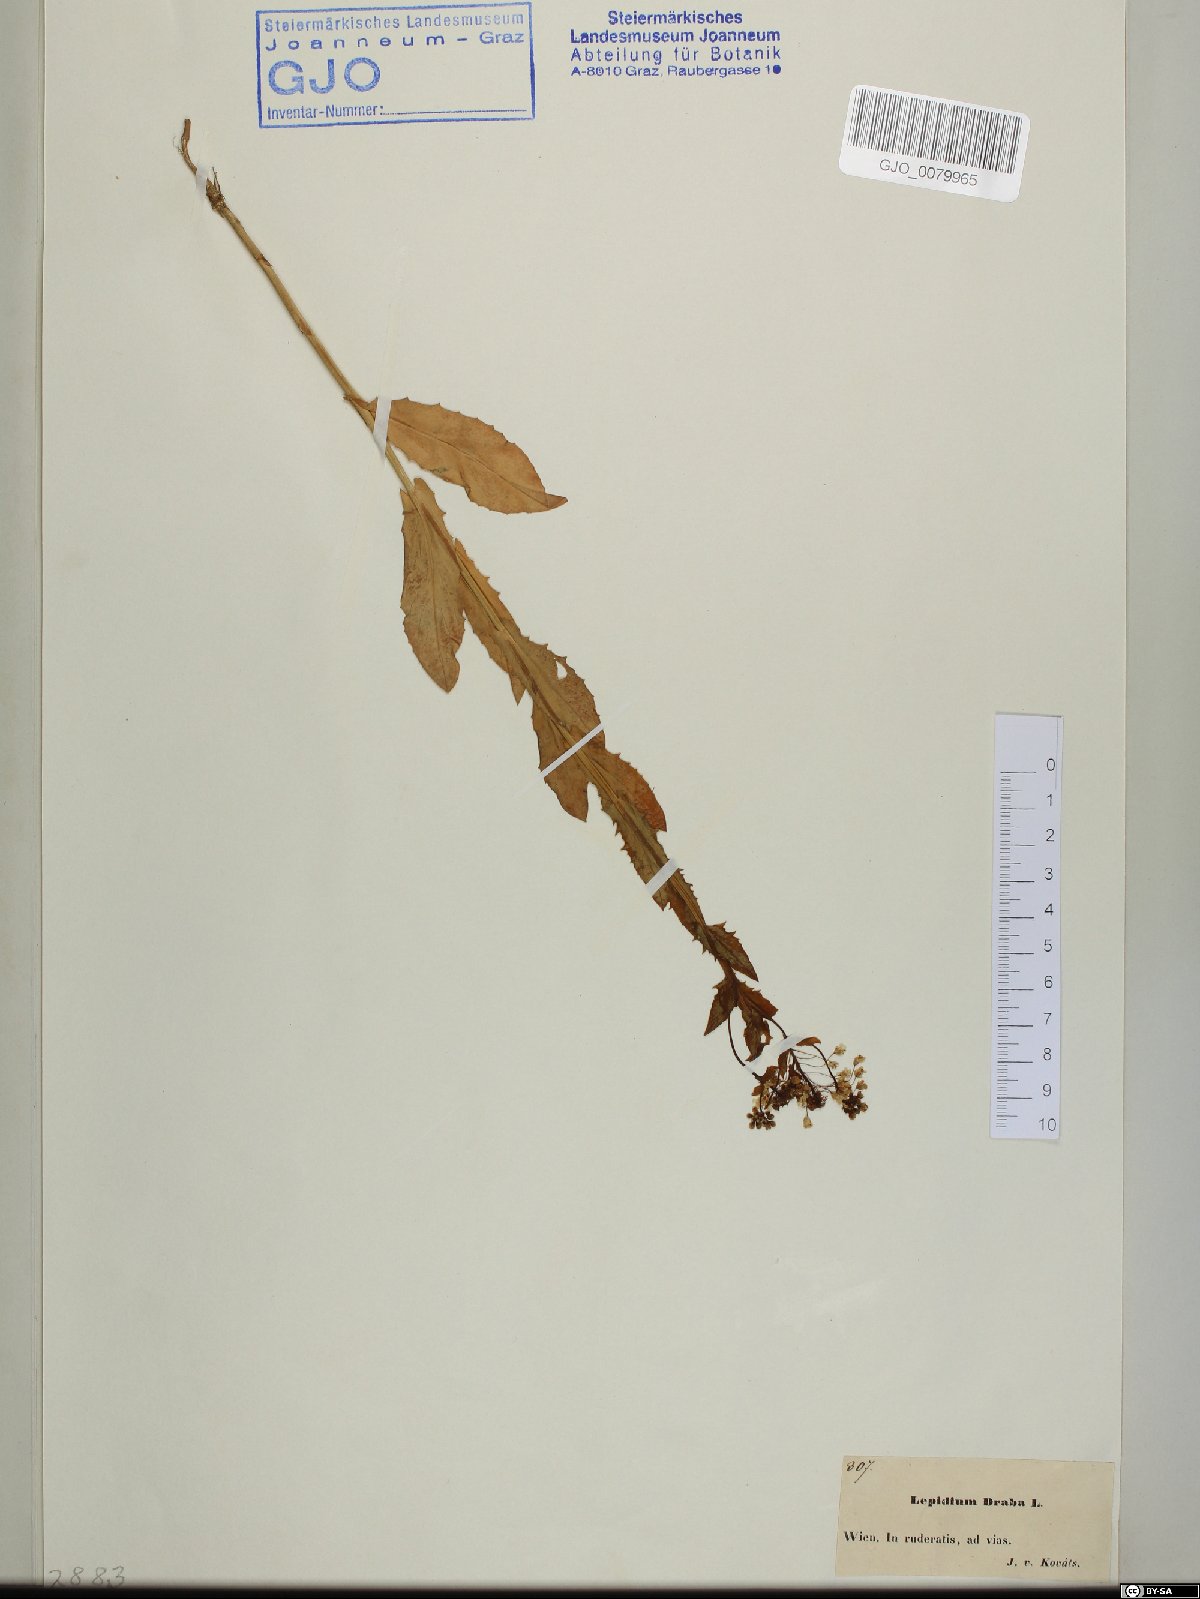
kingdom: Plantae
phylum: Tracheophyta
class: Magnoliopsida
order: Brassicales
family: Brassicaceae
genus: Lepidium
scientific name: Lepidium draba
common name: Hoary cress
